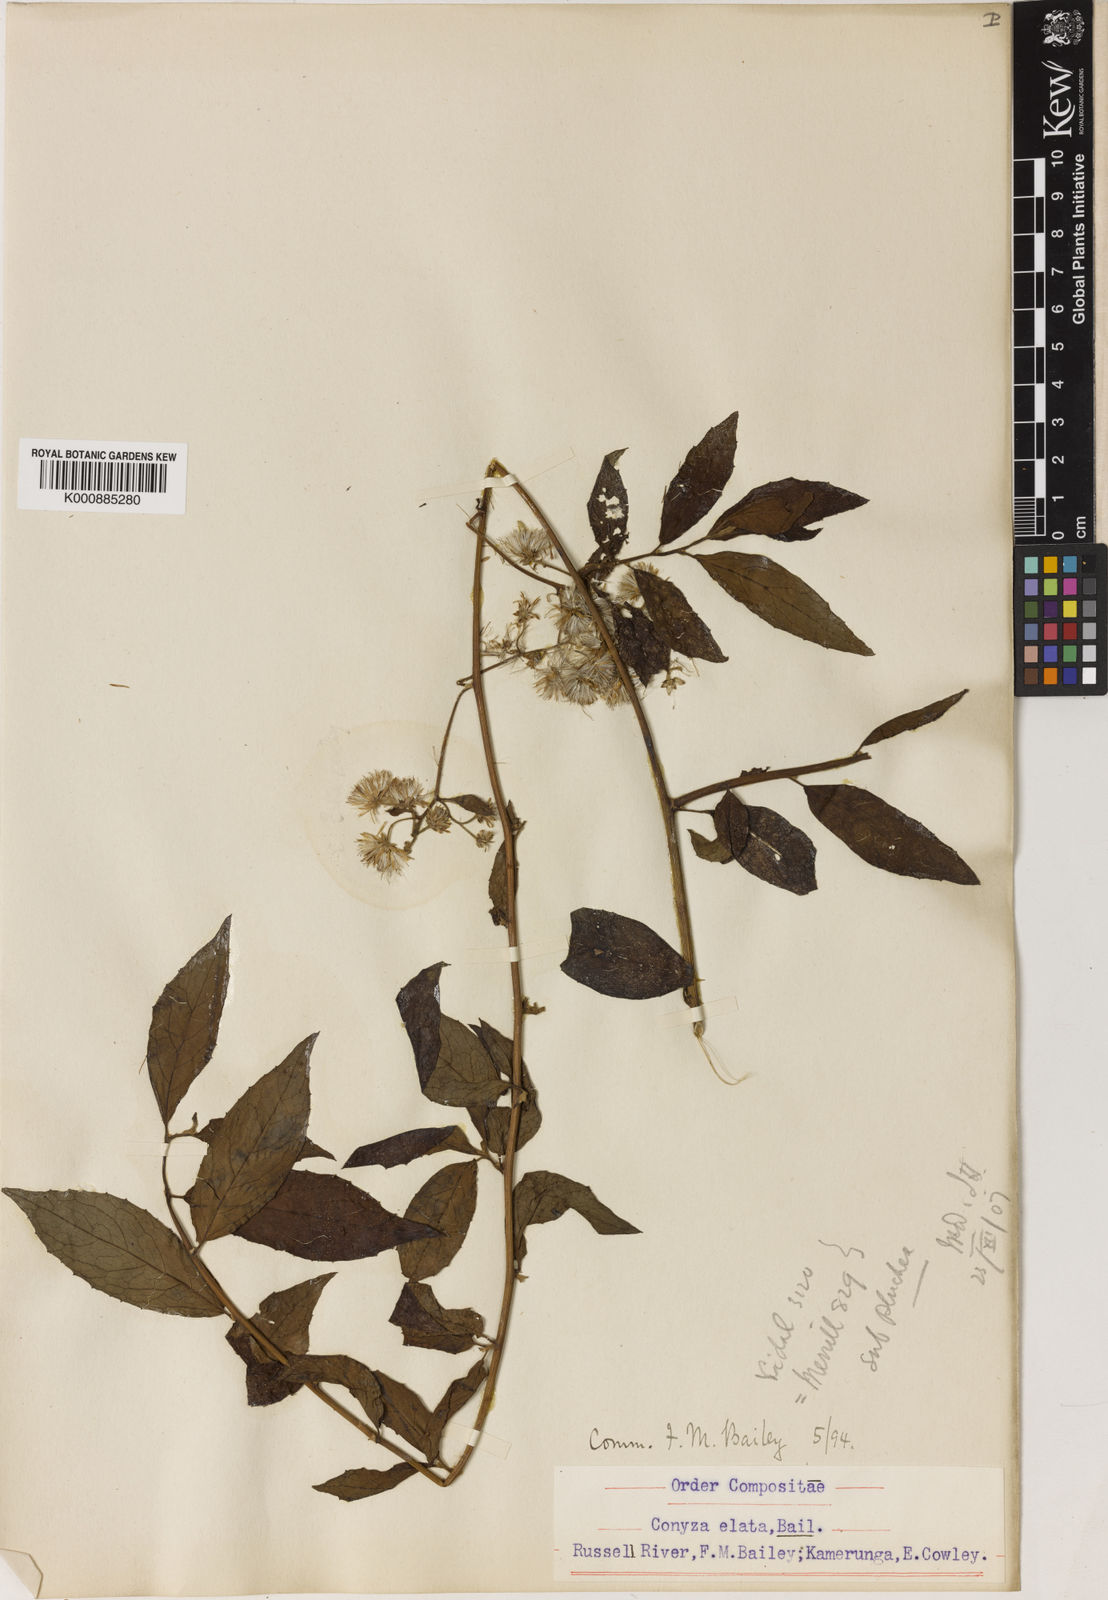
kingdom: Plantae
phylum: Tracheophyta
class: Magnoliopsida
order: Asterales
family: Asteraceae
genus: Conyza
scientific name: Conyza
